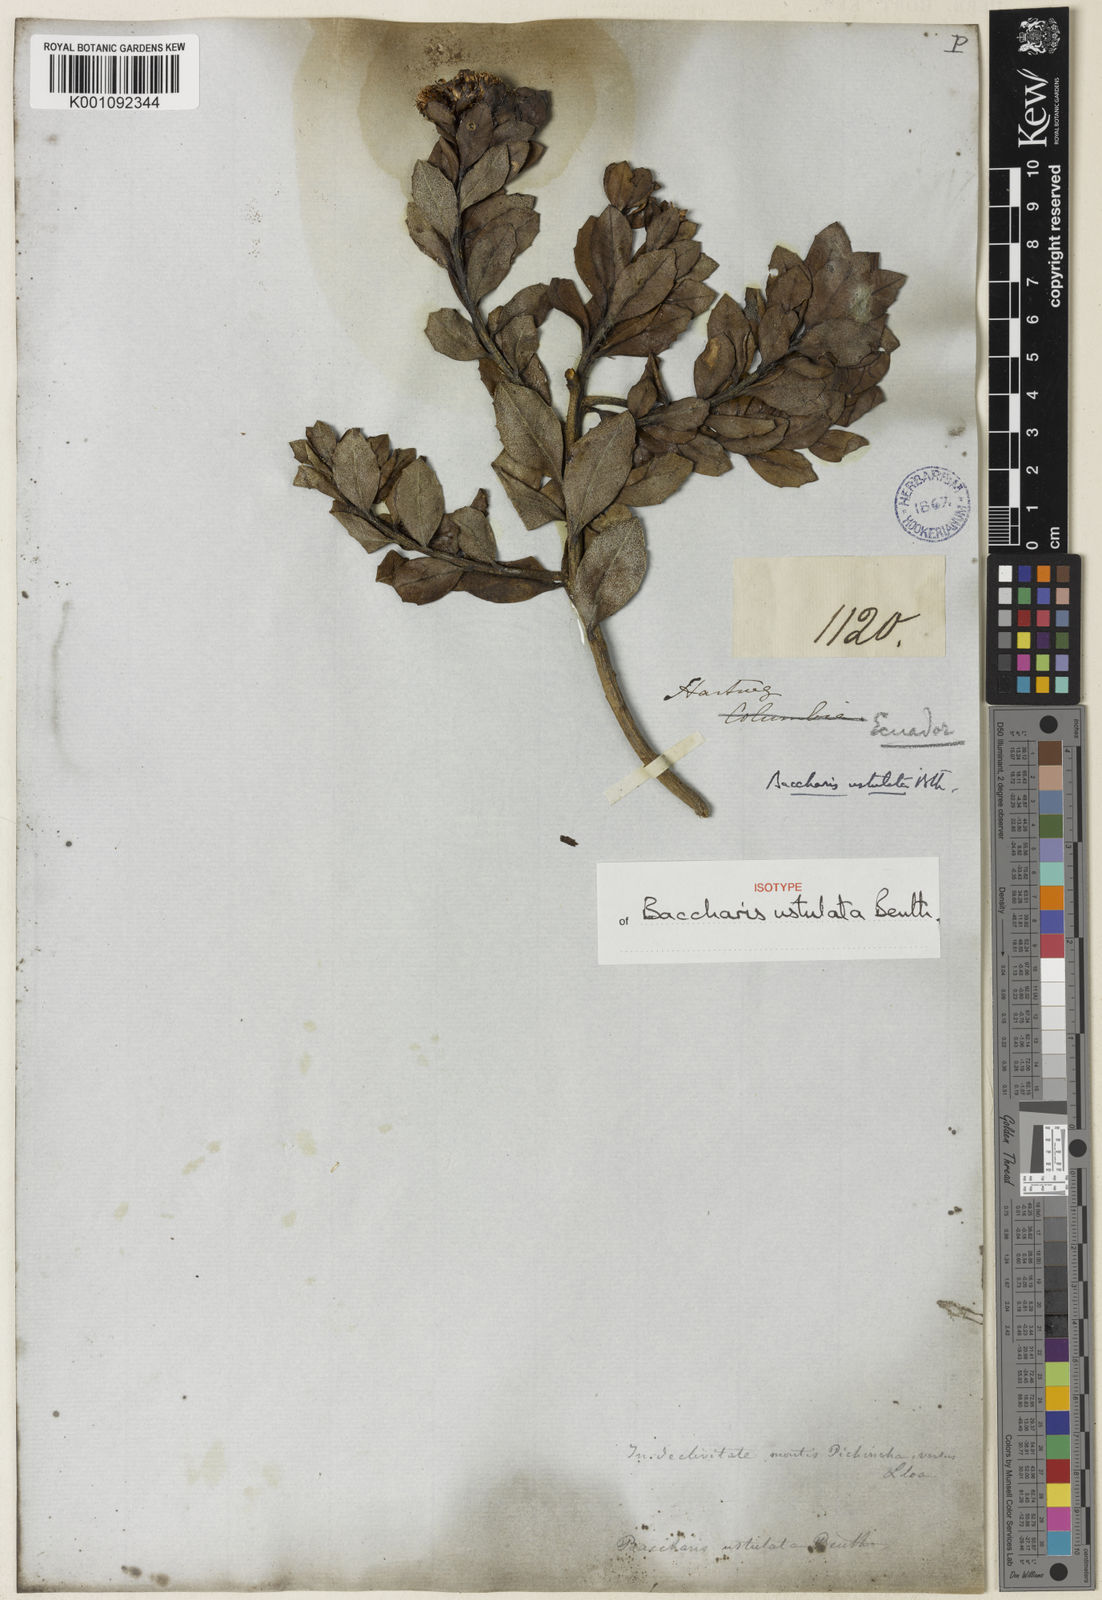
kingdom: Plantae
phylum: Tracheophyta
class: Magnoliopsida
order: Asterales
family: Asteraceae
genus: Baccharis
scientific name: Baccharis macrantha
